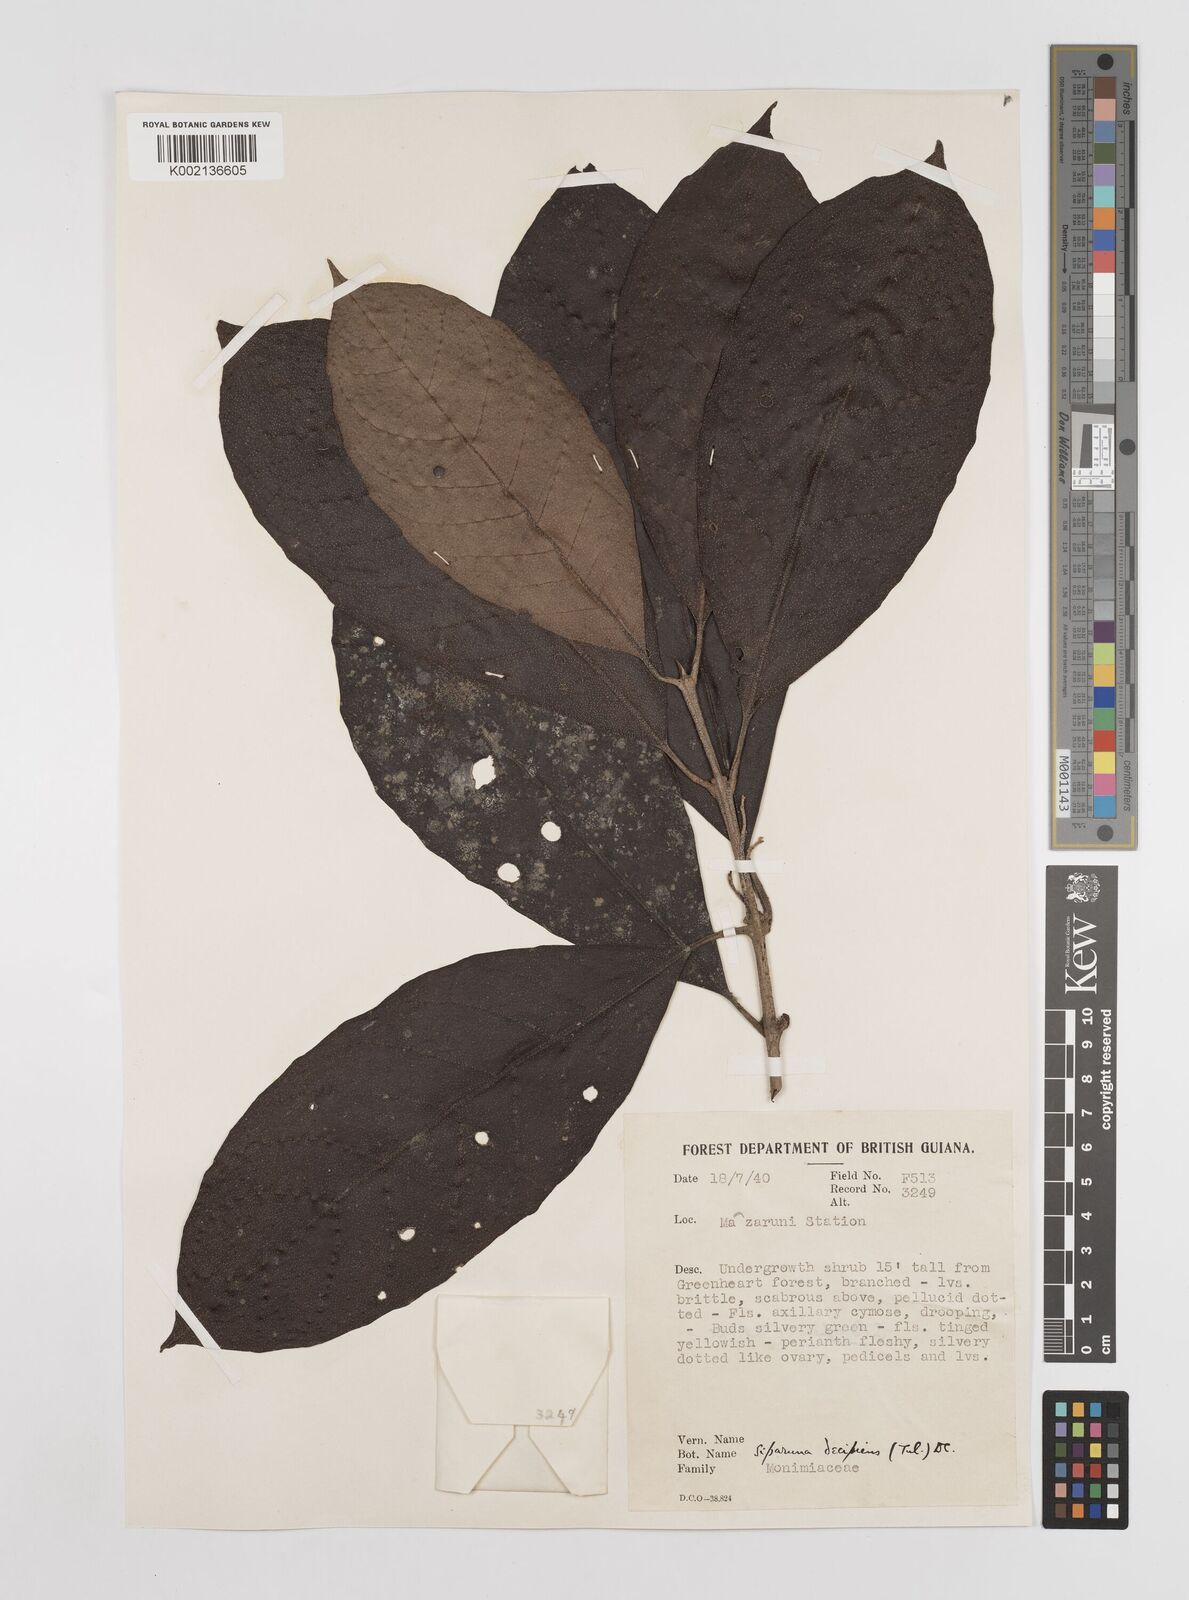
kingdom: Plantae
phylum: Tracheophyta
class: Magnoliopsida
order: Laurales
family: Siparunaceae
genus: Siparuna
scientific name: Siparuna decipiens
